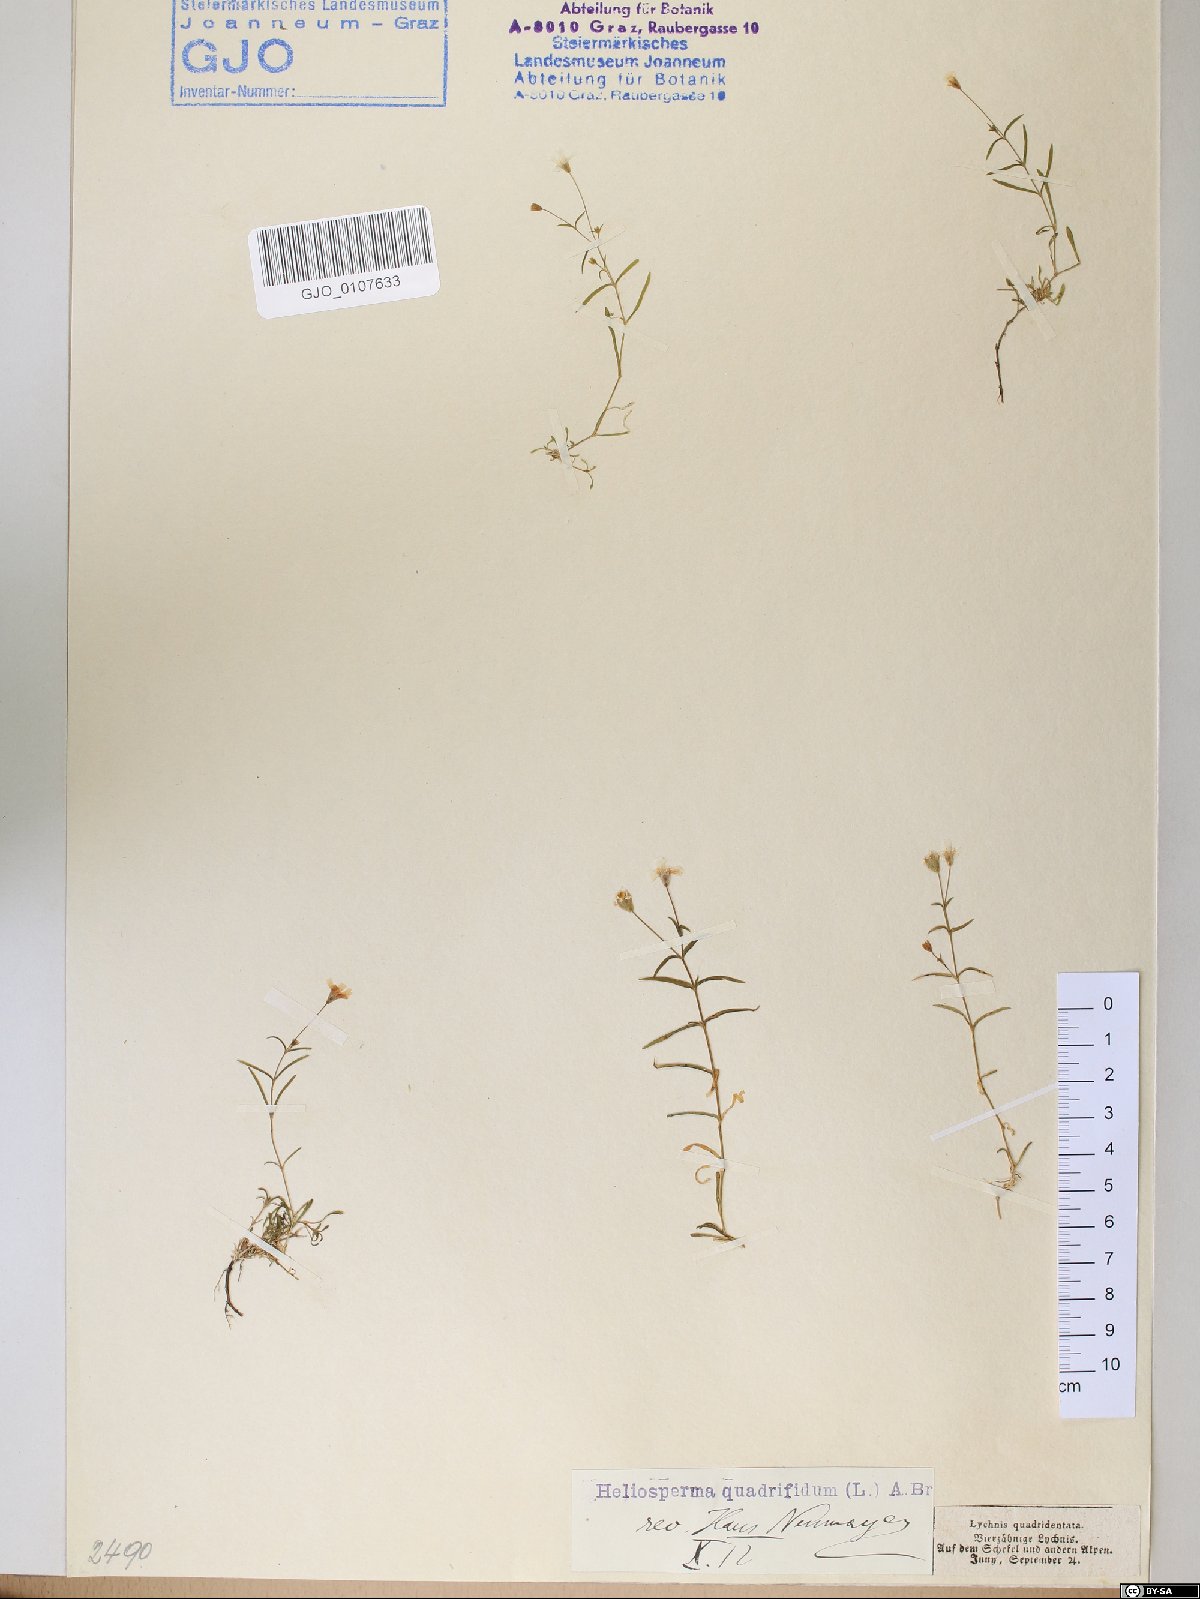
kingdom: Plantae
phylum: Tracheophyta
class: Magnoliopsida
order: Caryophyllales
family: Caryophyllaceae
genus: Heliosperma
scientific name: Heliosperma alpestre
